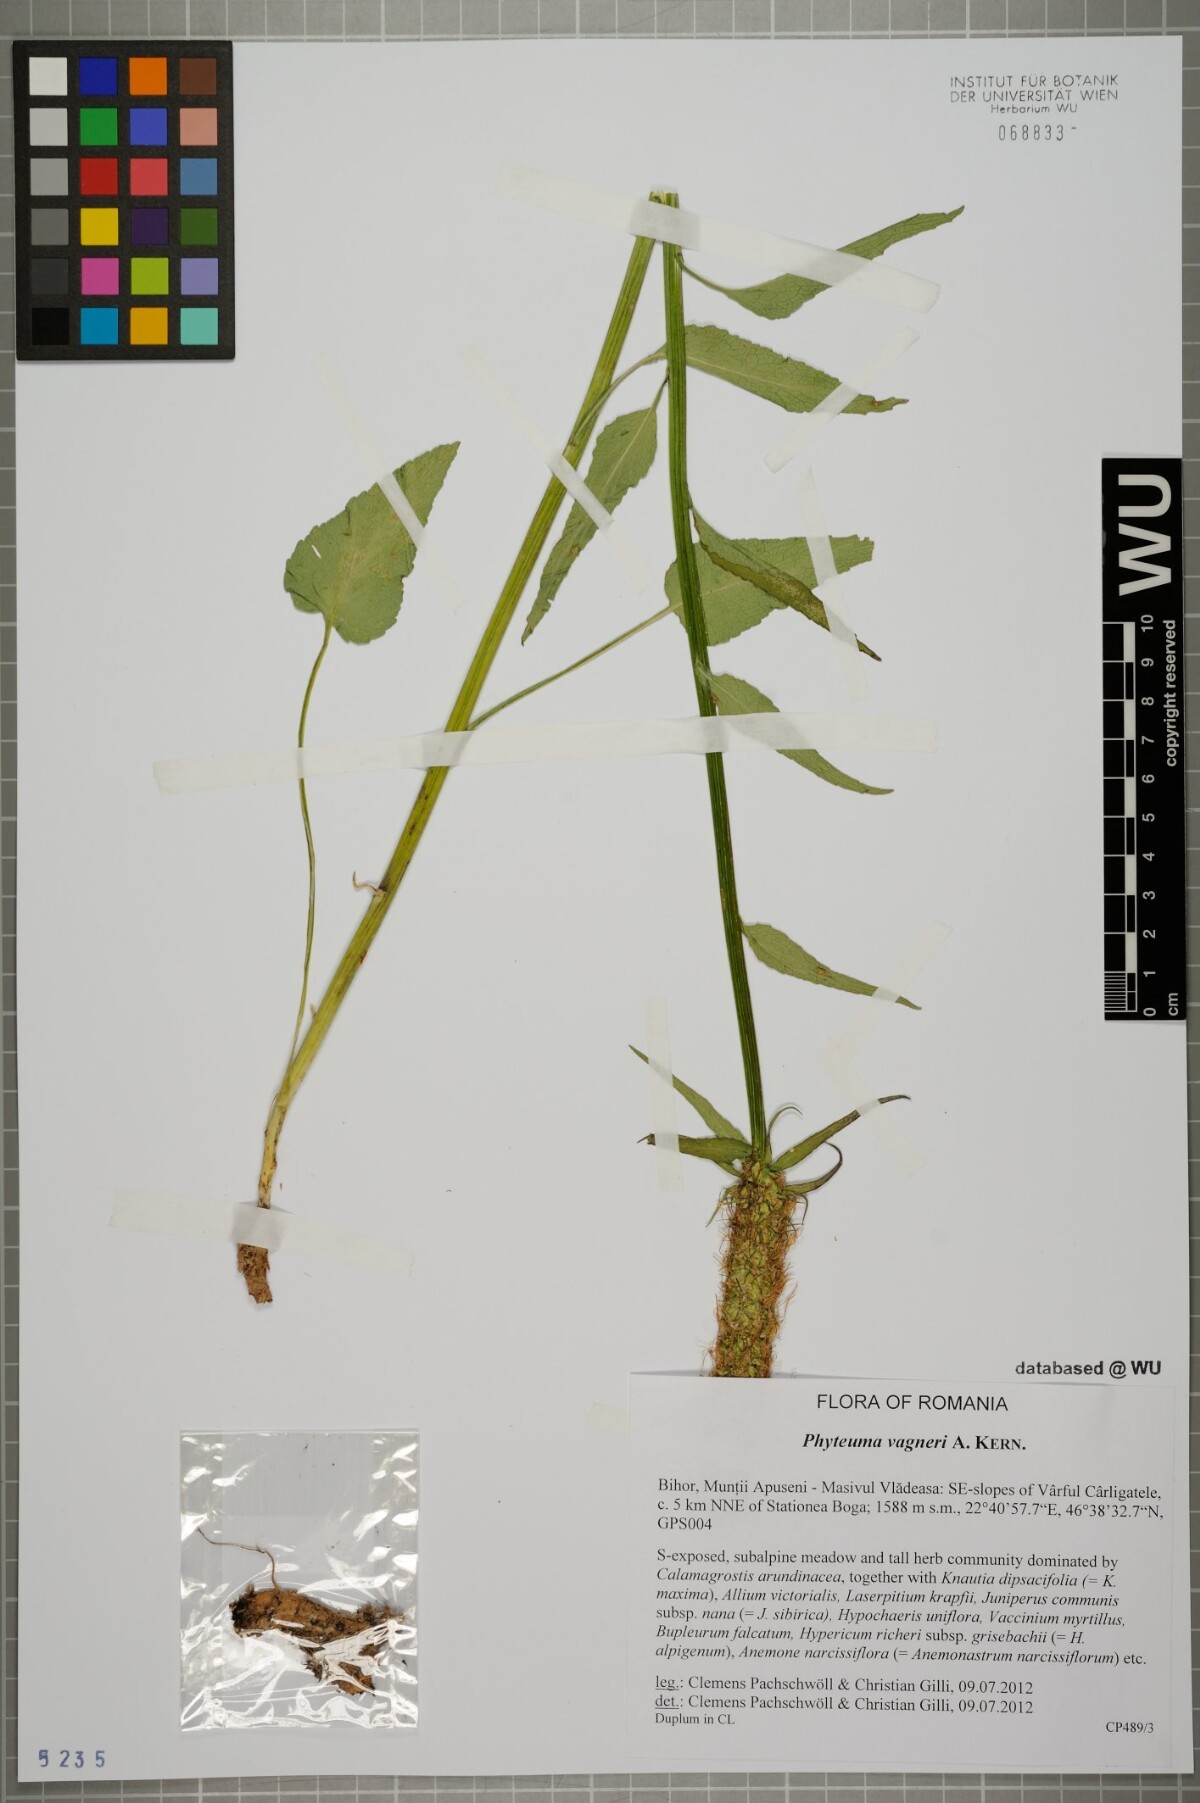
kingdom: Plantae
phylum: Tracheophyta
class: Magnoliopsida
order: Asterales
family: Campanulaceae
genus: Phyteuma
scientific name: Phyteuma vagneri
